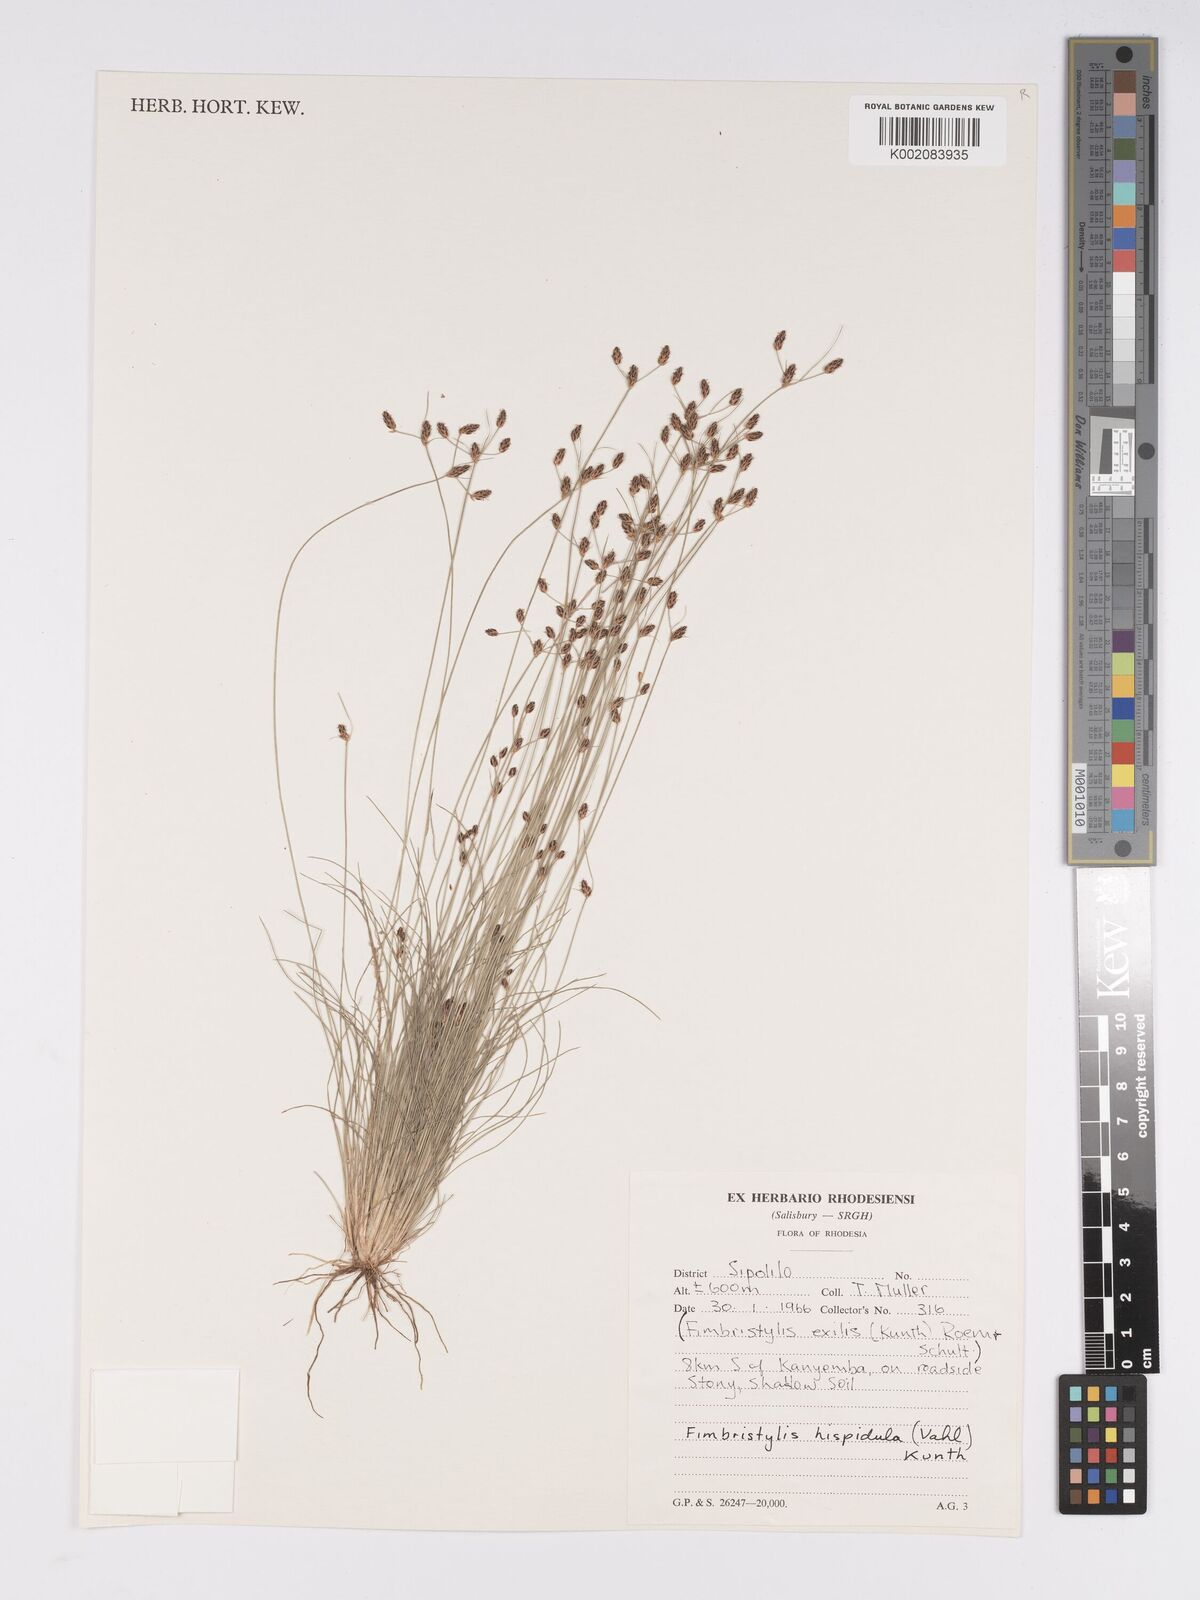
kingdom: Plantae
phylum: Tracheophyta
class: Liliopsida
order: Poales
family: Cyperaceae
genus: Bulbostylis
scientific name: Bulbostylis hispidula
